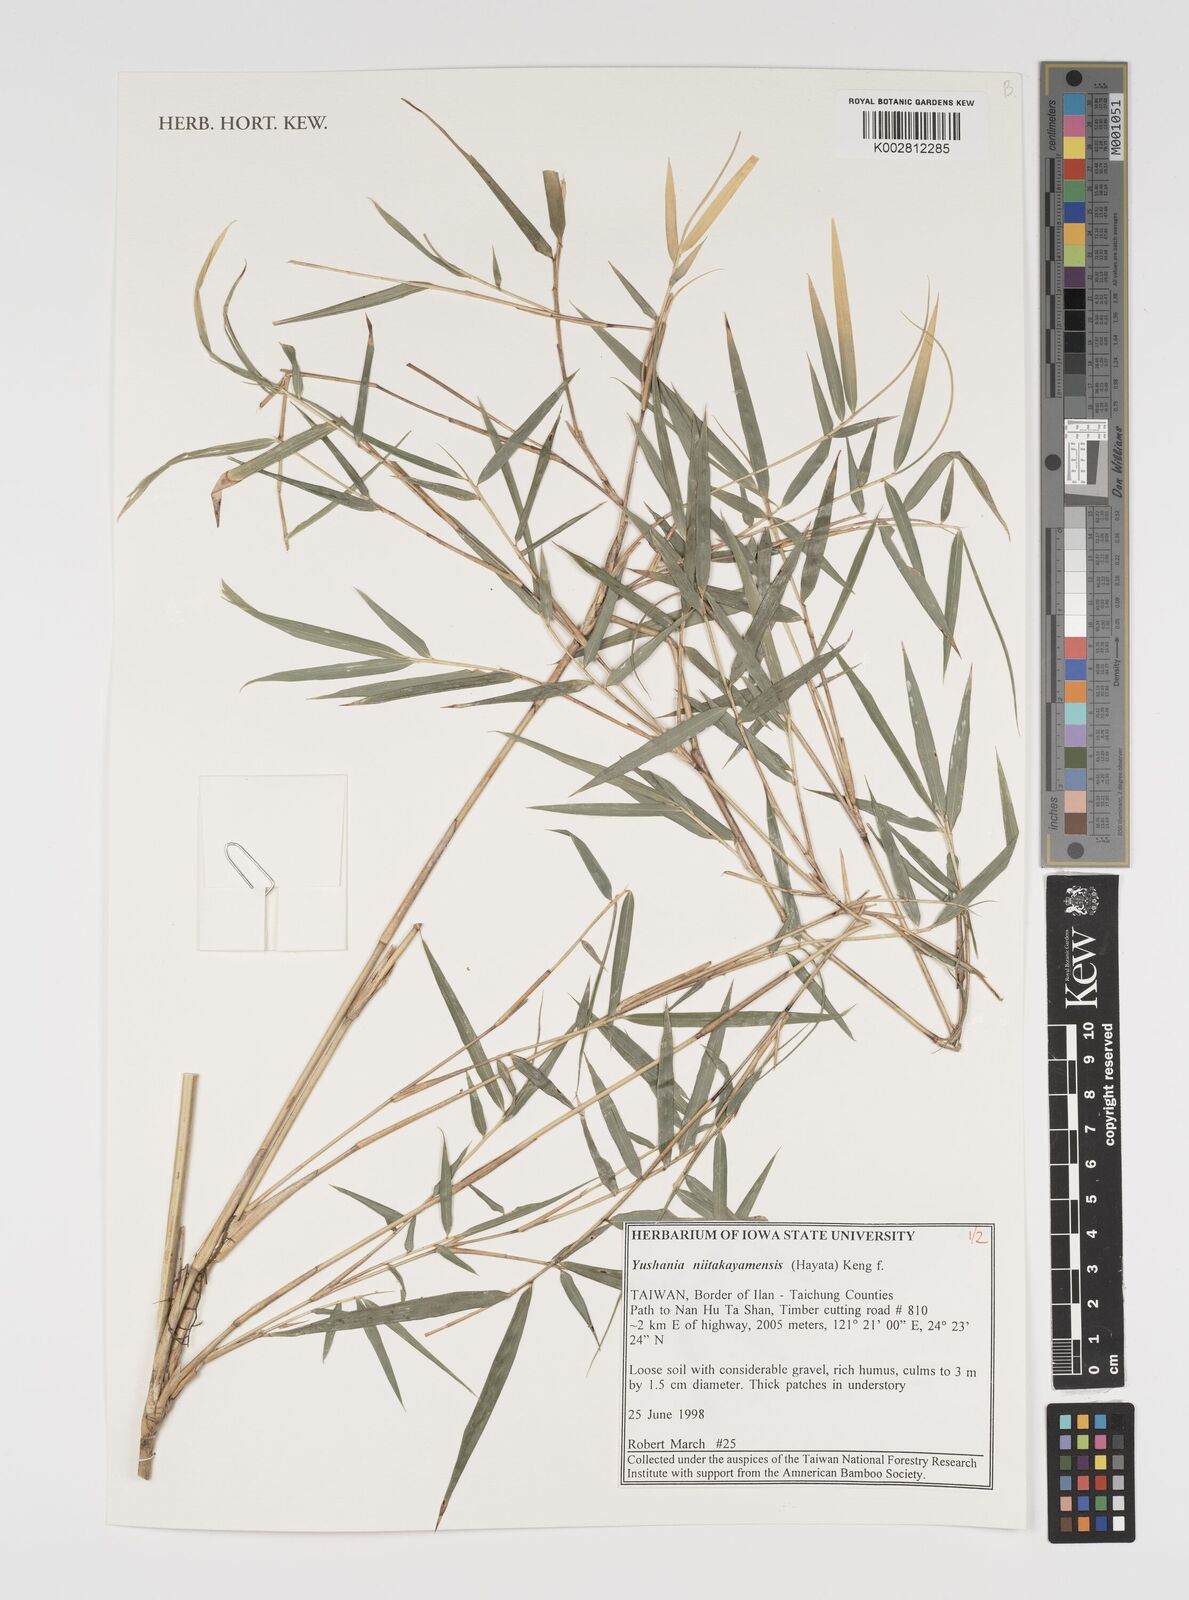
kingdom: Plantae
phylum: Tracheophyta
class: Liliopsida
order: Poales
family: Poaceae
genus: Yushania
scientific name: Yushania niitakayamensis
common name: Yushan cane
